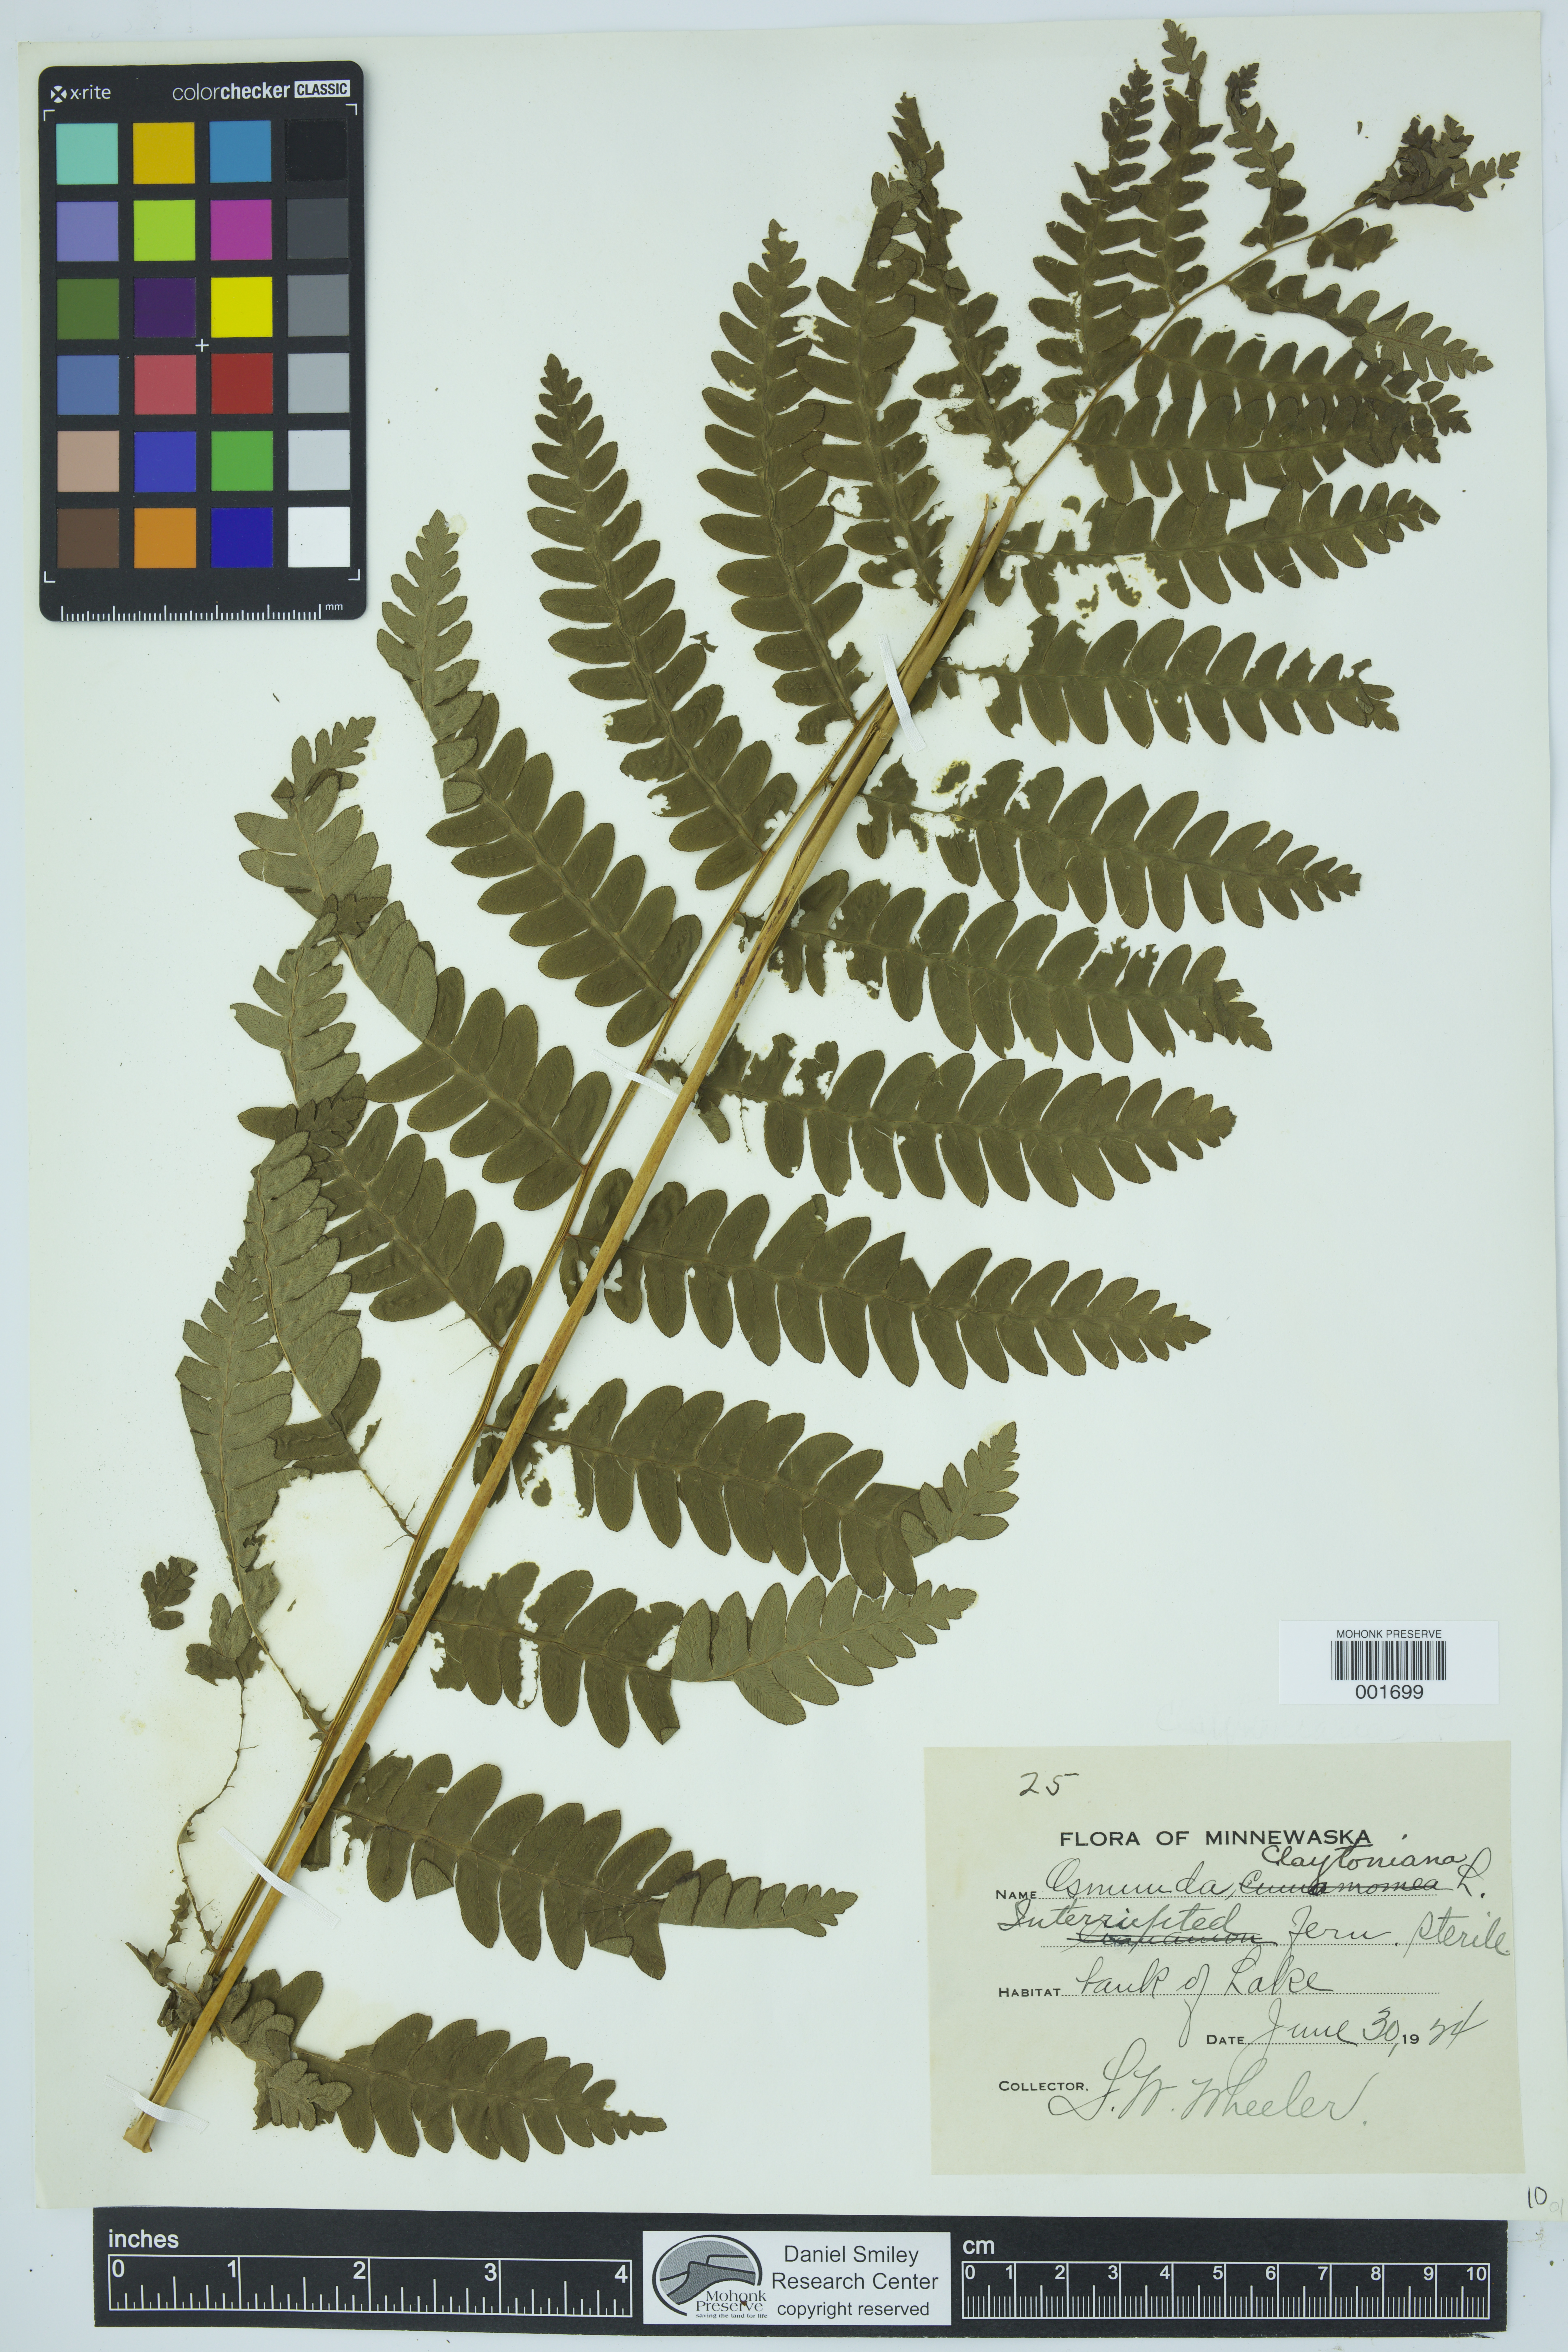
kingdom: Plantae
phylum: Tracheophyta
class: Polypodiopsida
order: Osmundales
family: Osmundaceae
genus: Claytosmunda
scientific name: Claytosmunda claytoniana
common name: Clayton's fern
